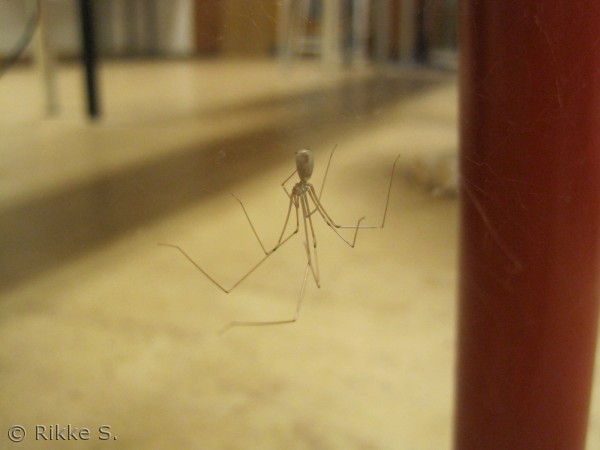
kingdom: Animalia
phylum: Arthropoda
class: Arachnida
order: Araneae
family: Pholcidae
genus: Pholcus
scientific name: Pholcus phalangioides
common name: Mejeredderkop
